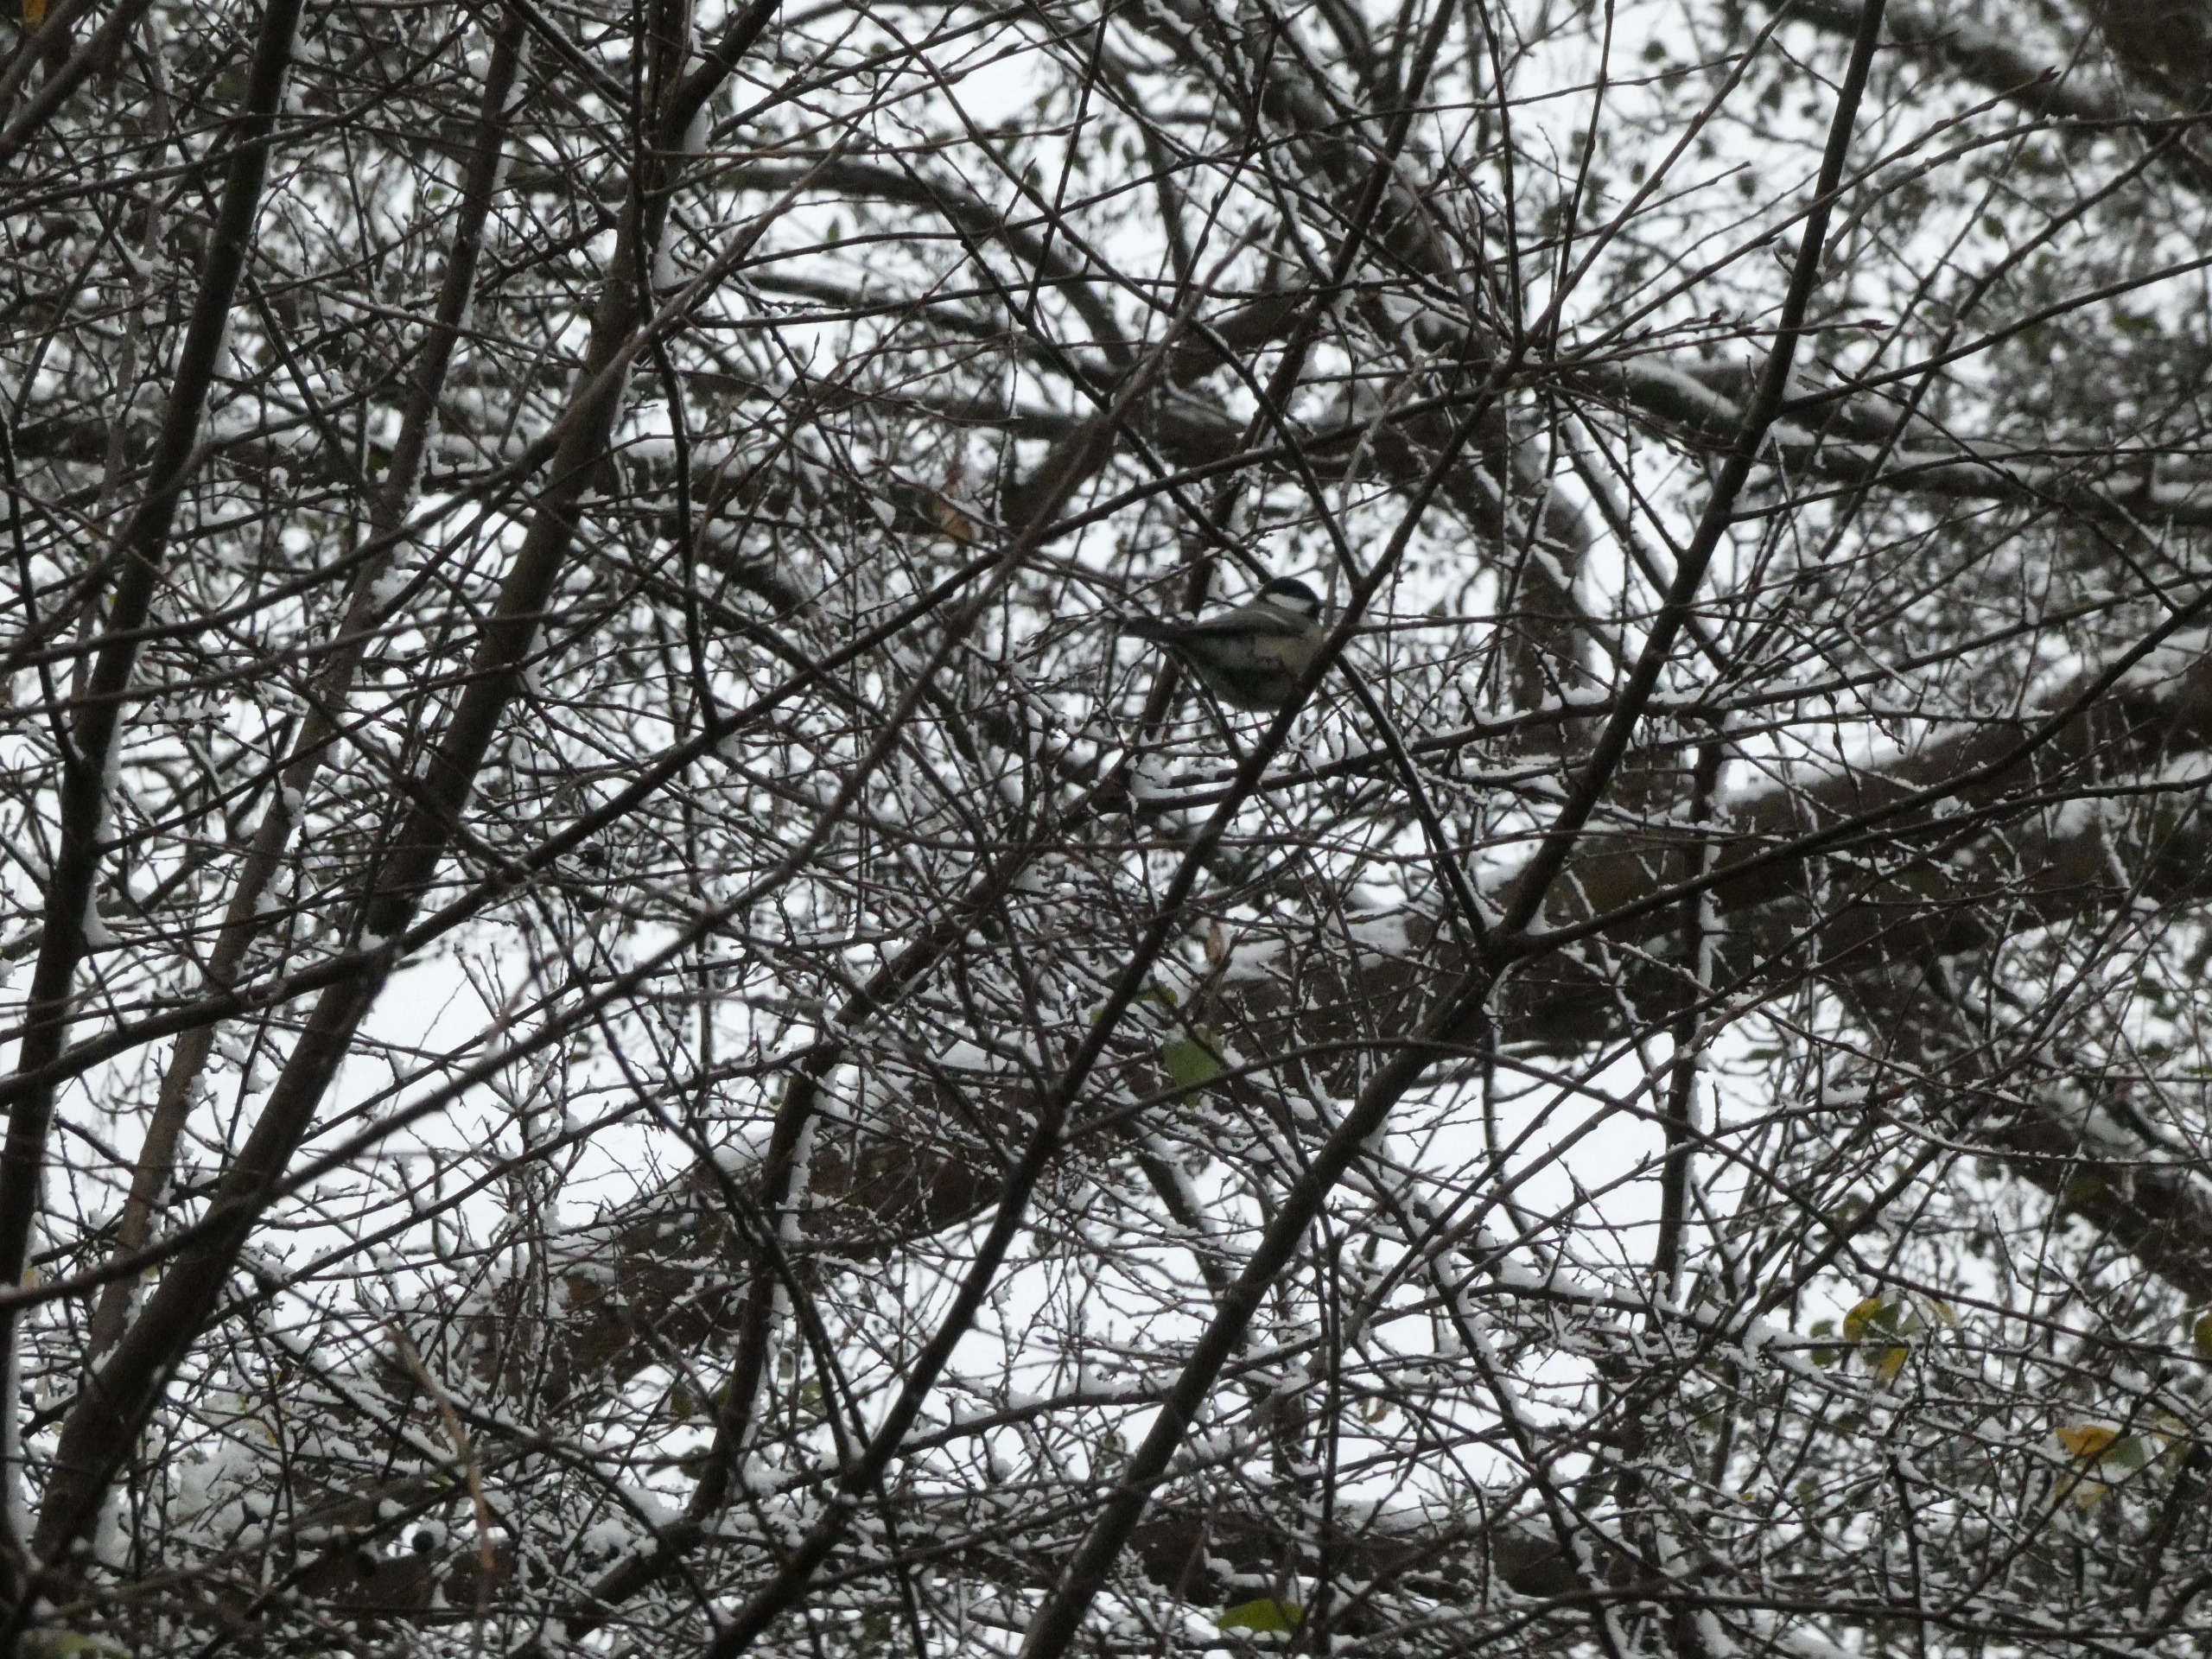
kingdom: Animalia
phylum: Chordata
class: Aves
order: Passeriformes
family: Paridae
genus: Parus
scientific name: Parus major
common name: Musvit
